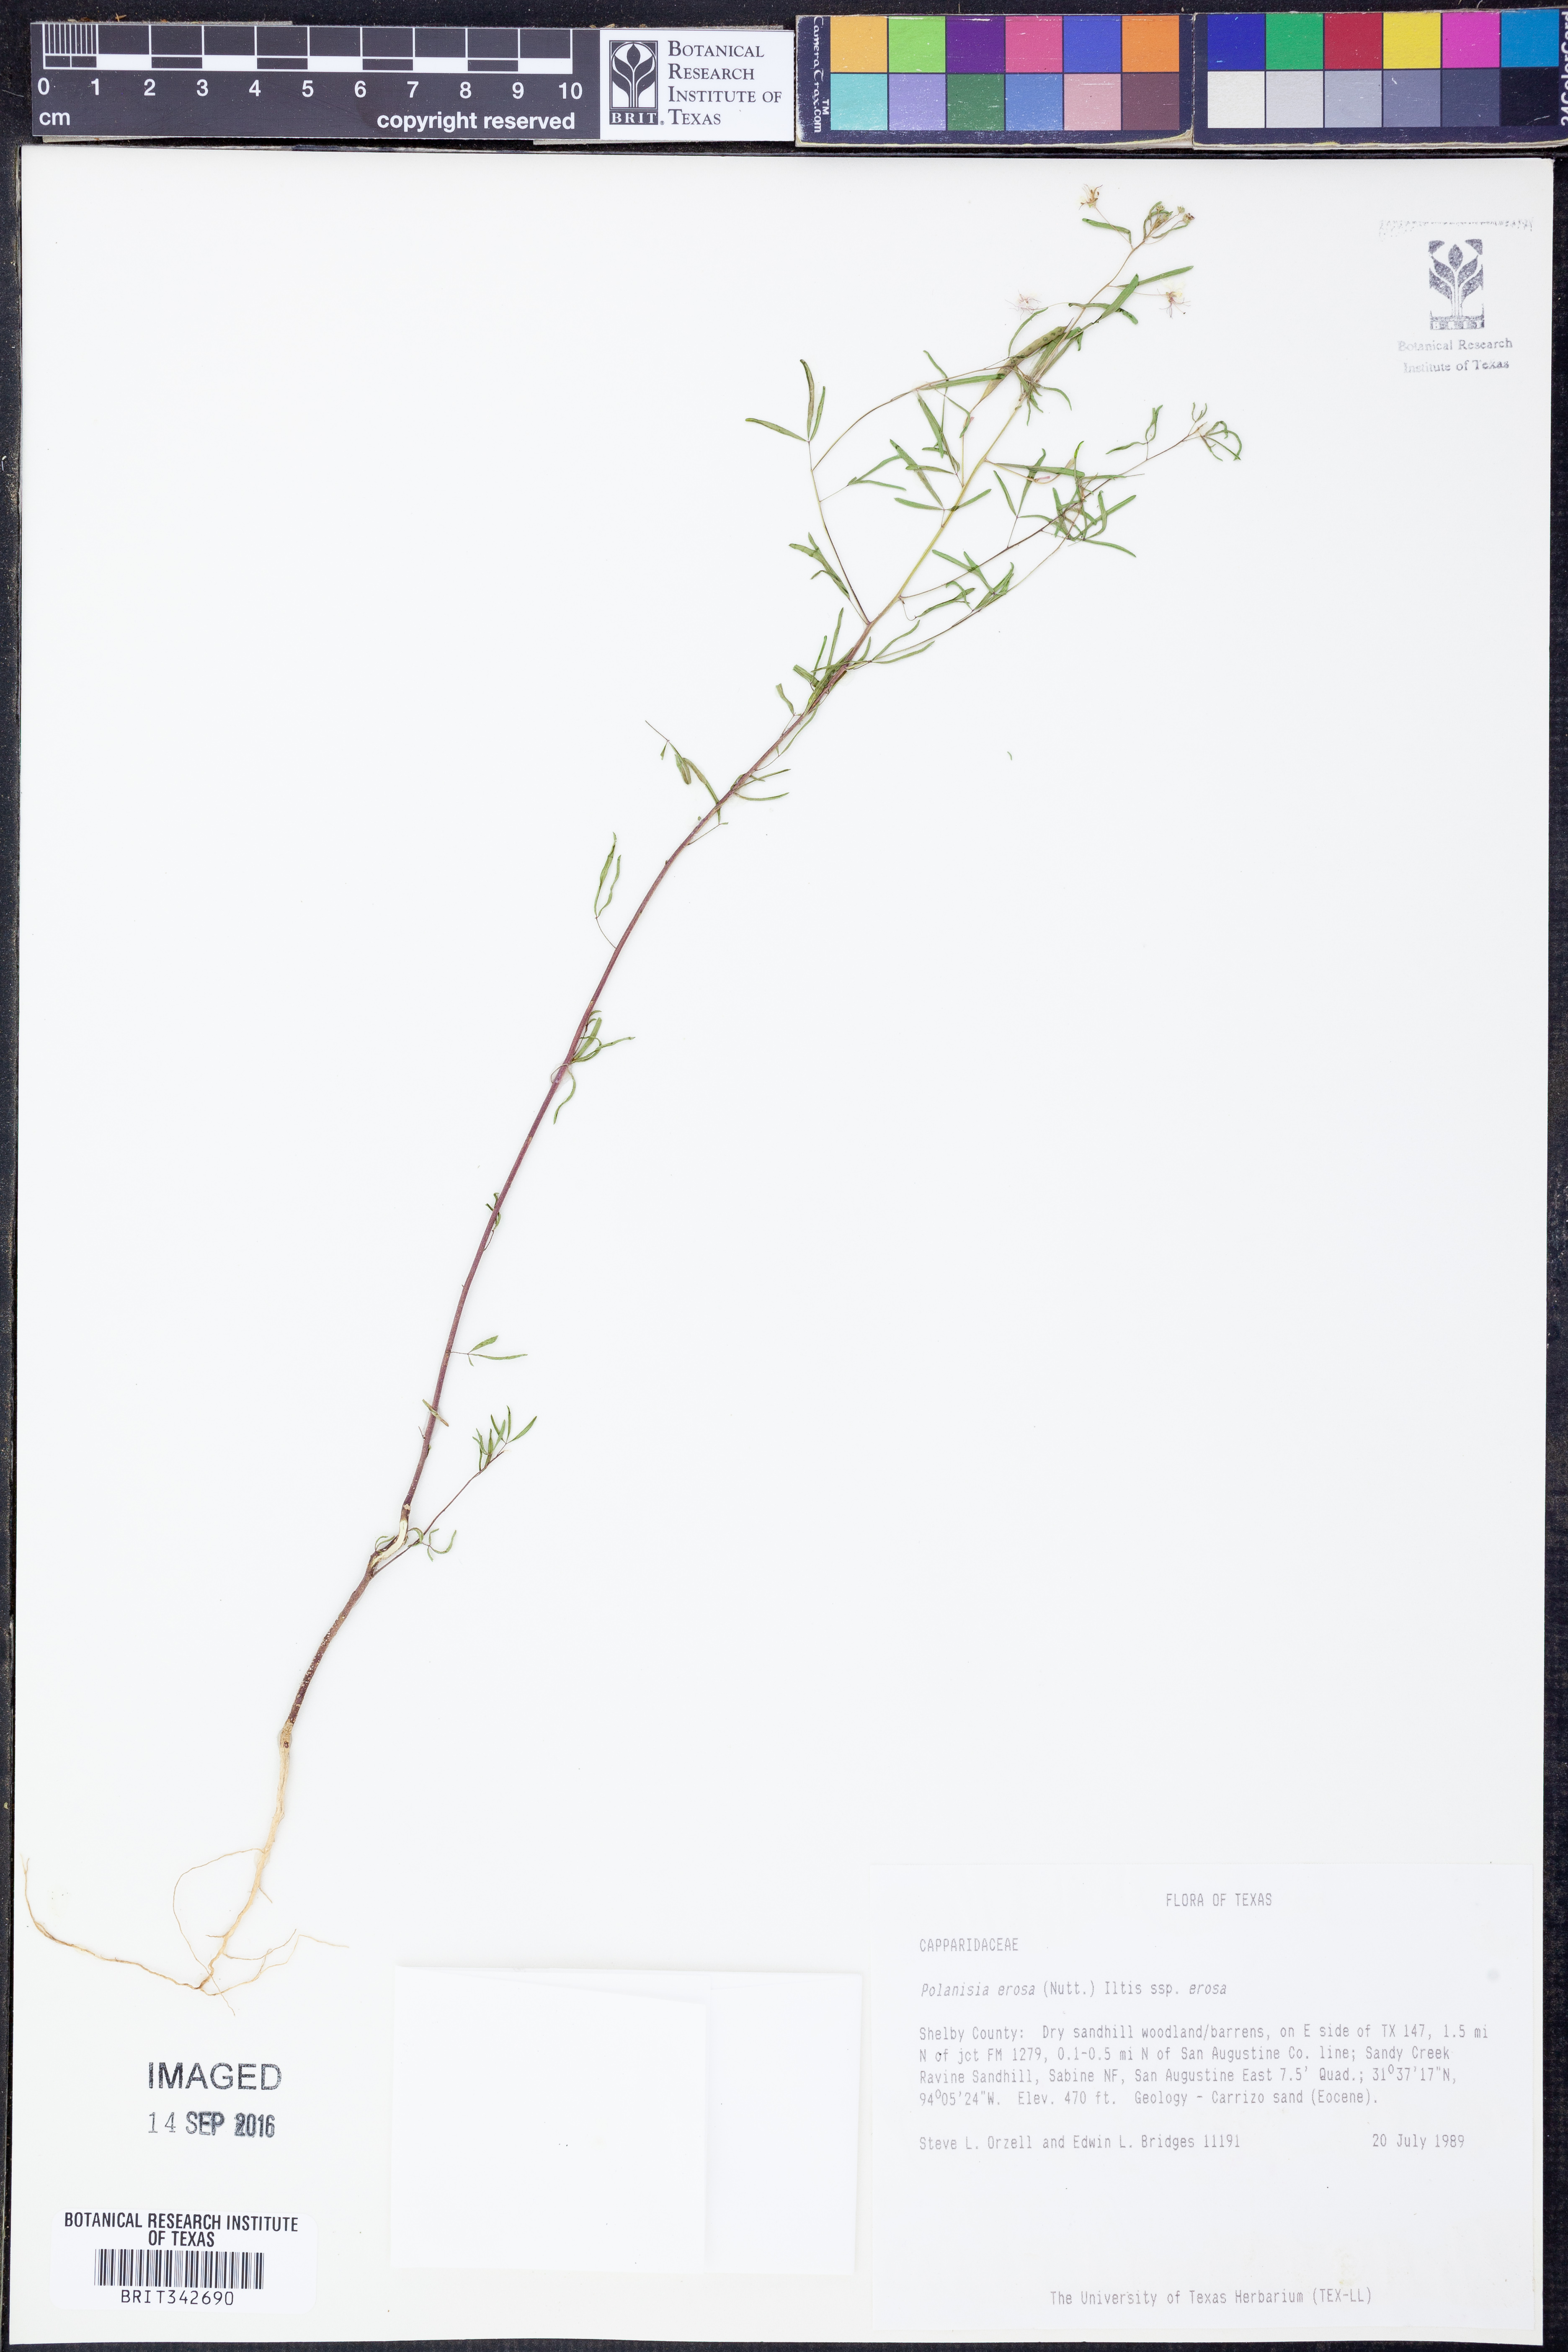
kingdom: Plantae
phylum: Tracheophyta
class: Magnoliopsida
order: Brassicales
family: Cleomaceae
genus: Polanisia
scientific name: Polanisia erosa
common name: Large clammyweed
